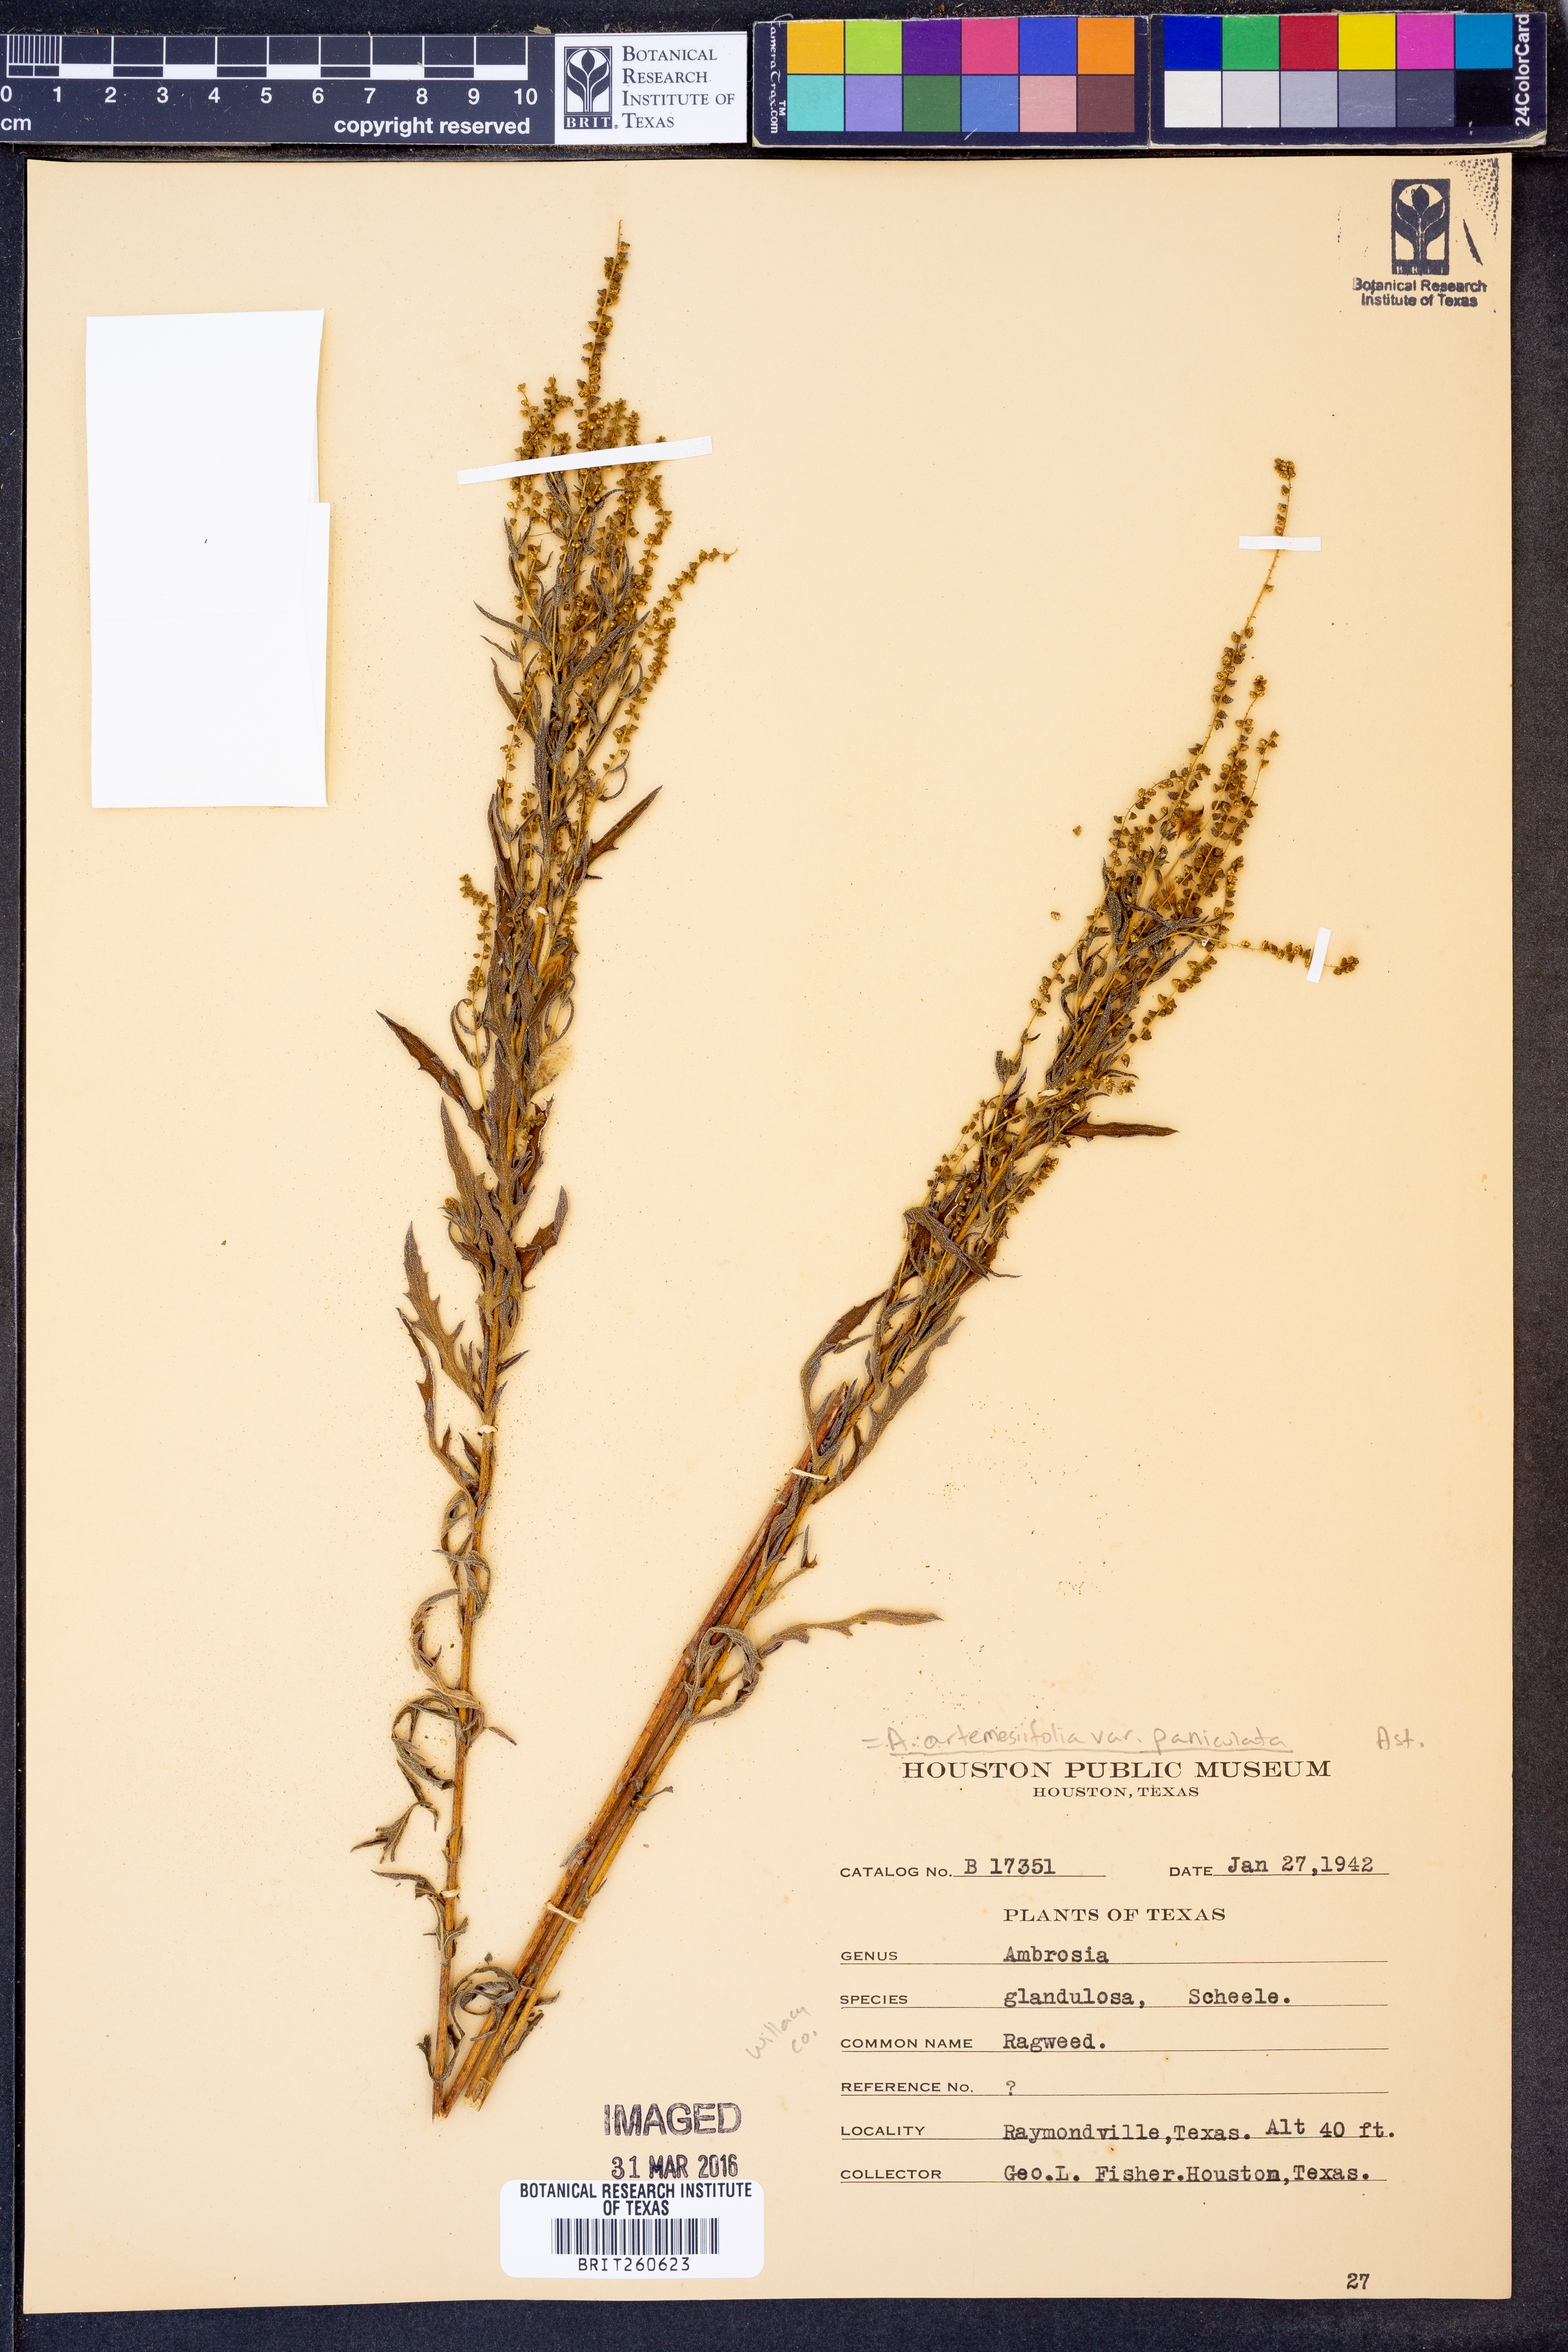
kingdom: Plantae
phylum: Tracheophyta
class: Magnoliopsida
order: Asterales
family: Asteraceae
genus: Ambrosia
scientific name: Ambrosia artemisiifolia
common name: Annual ragweed
